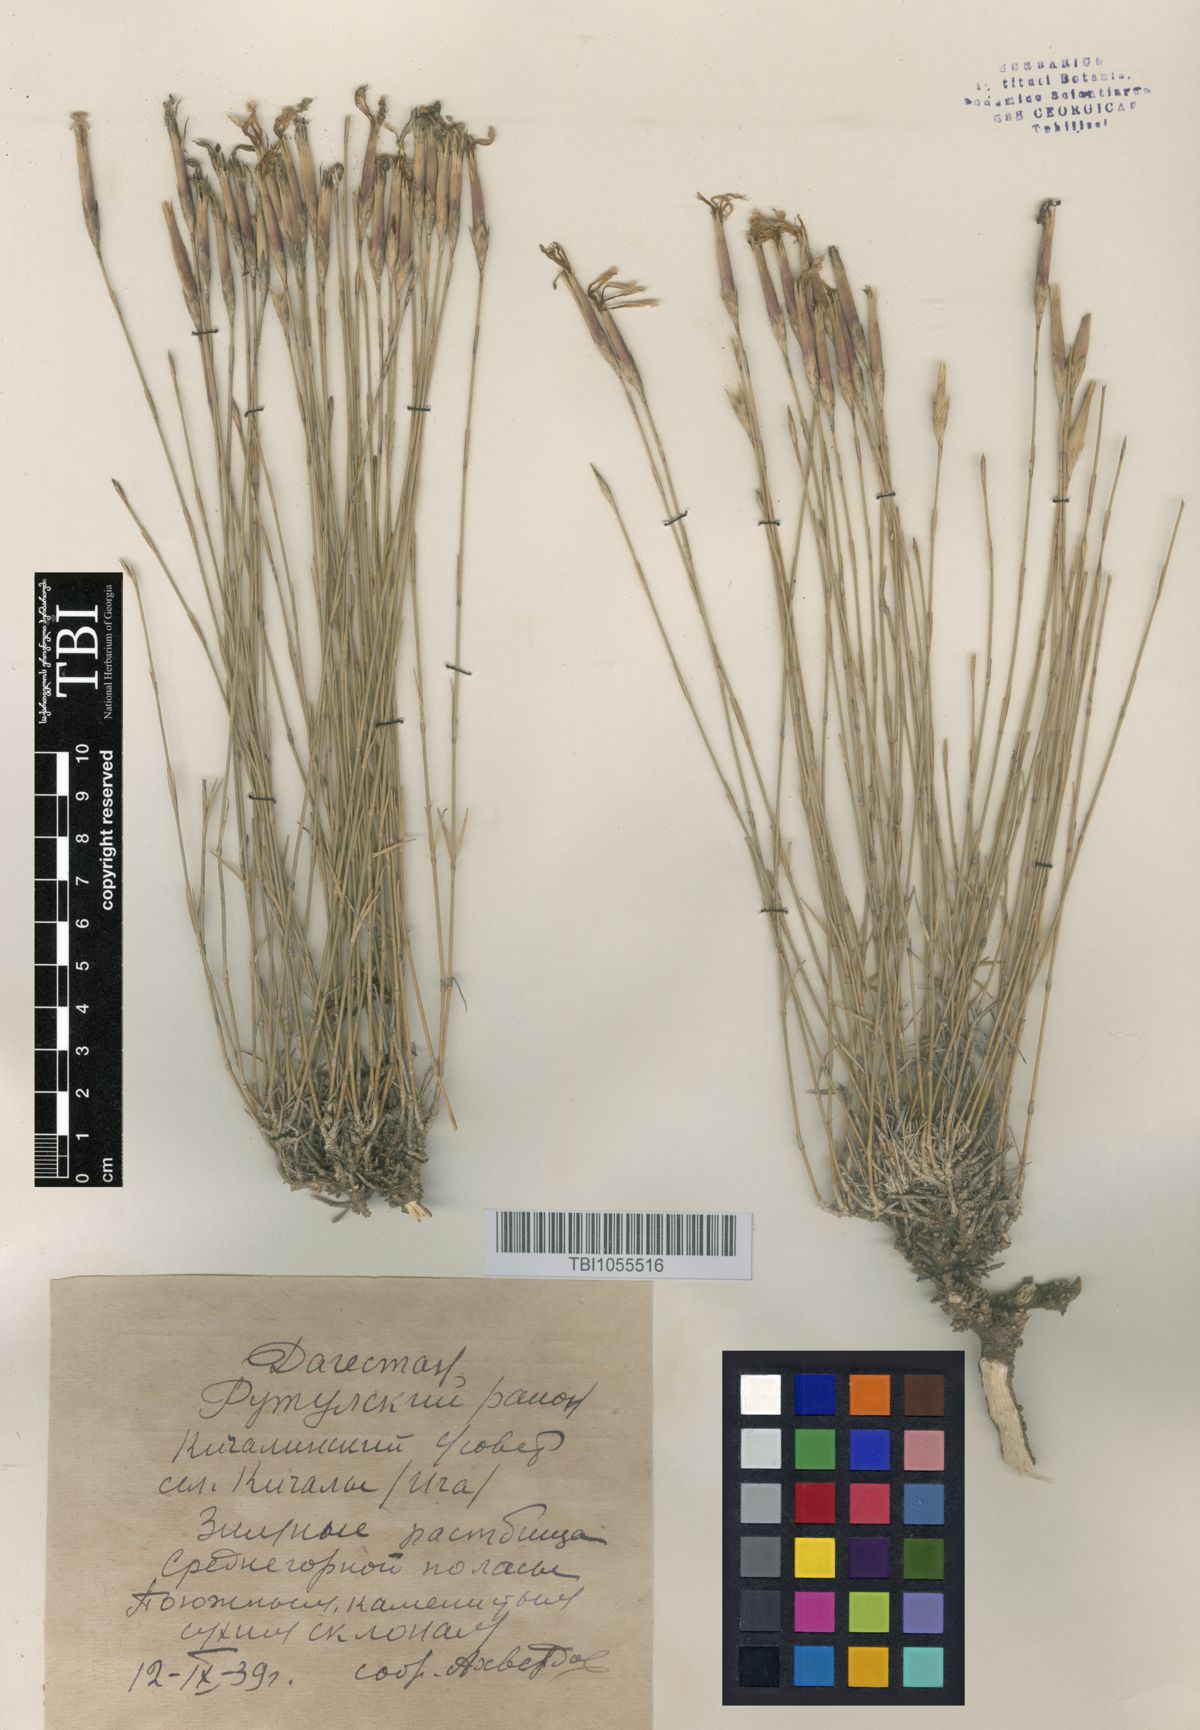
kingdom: Plantae
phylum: Tracheophyta
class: Magnoliopsida
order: Caryophyllales
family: Caryophyllaceae
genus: Dianthus
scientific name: Dianthus daghestanicus
